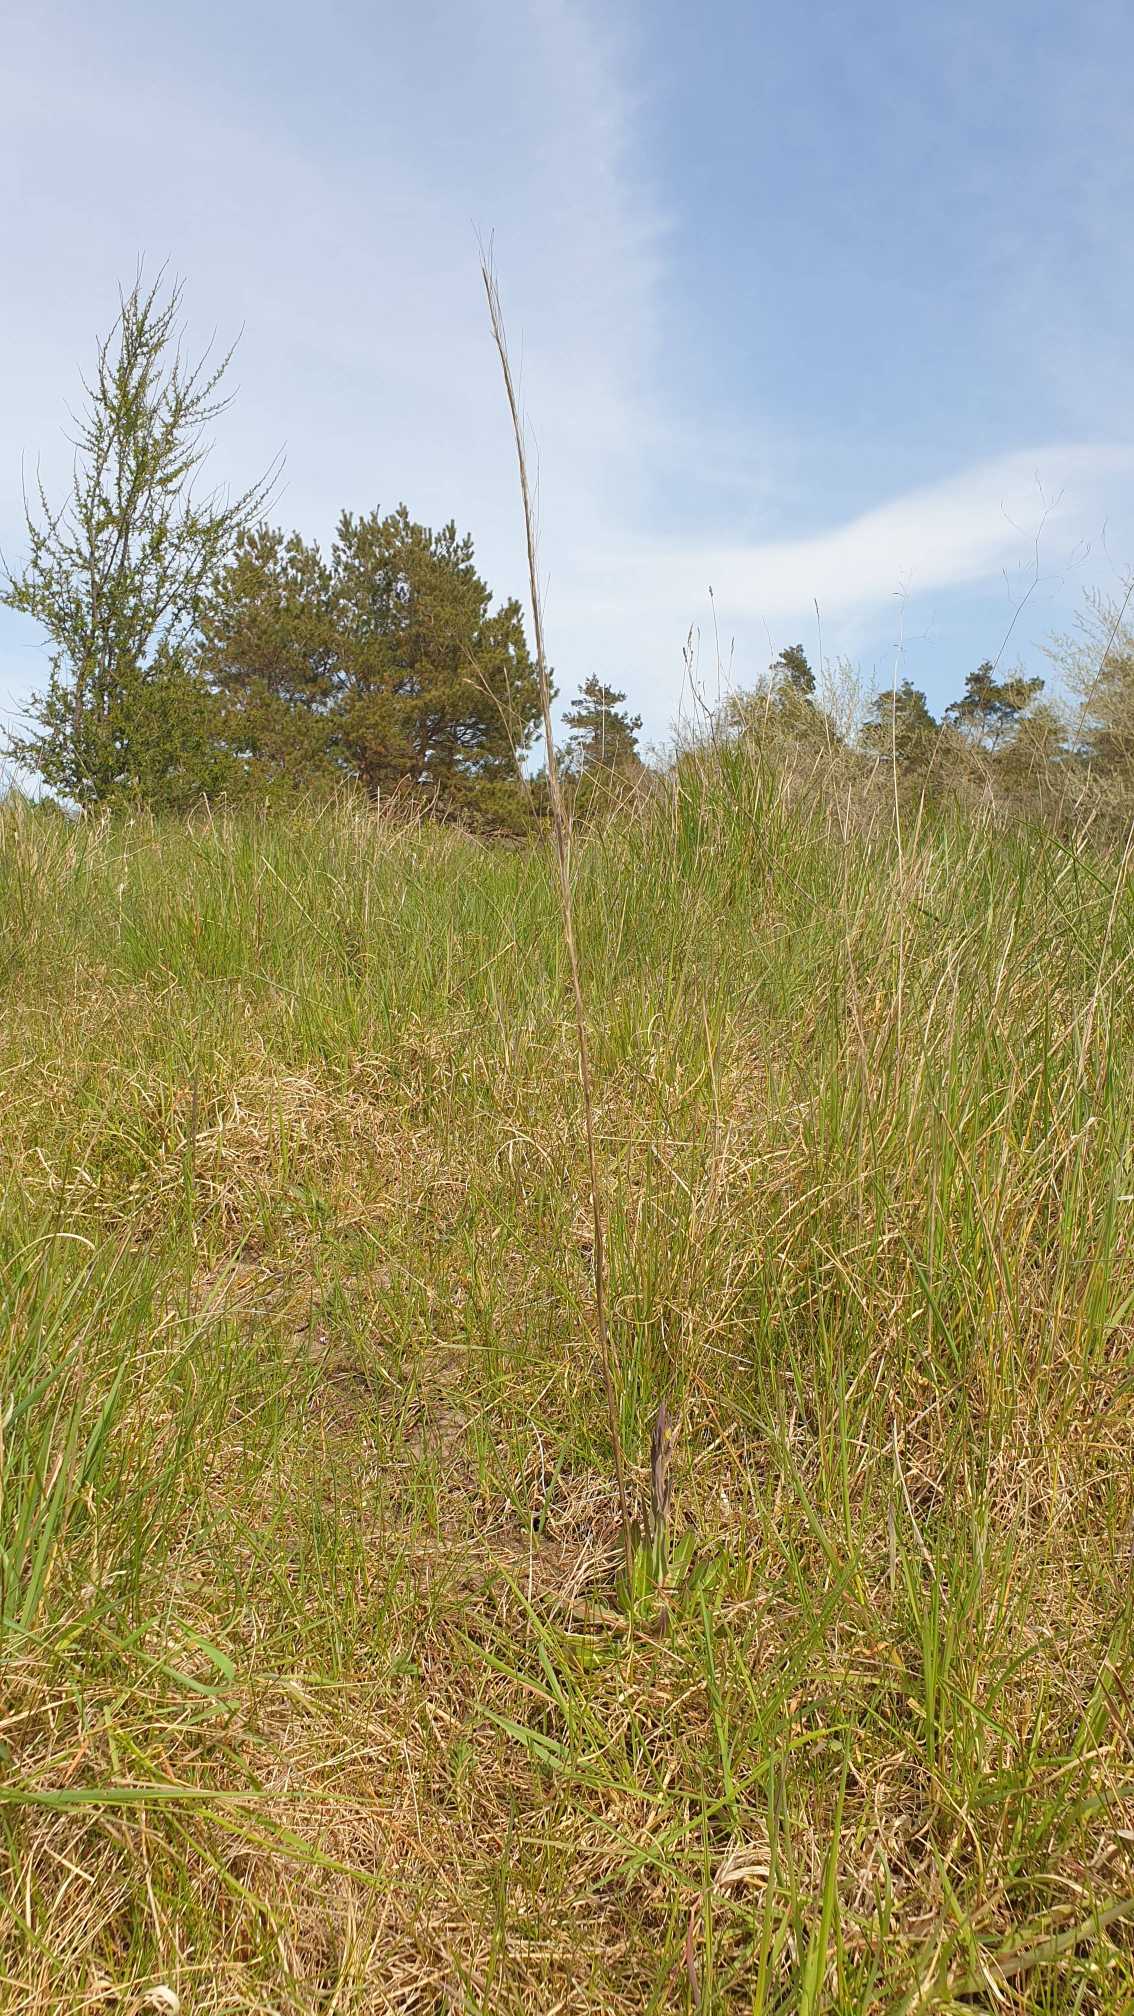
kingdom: Plantae
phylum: Tracheophyta
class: Magnoliopsida
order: Brassicales
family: Brassicaceae
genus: Turritis
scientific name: Turritis glabra
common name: Tårnurt
